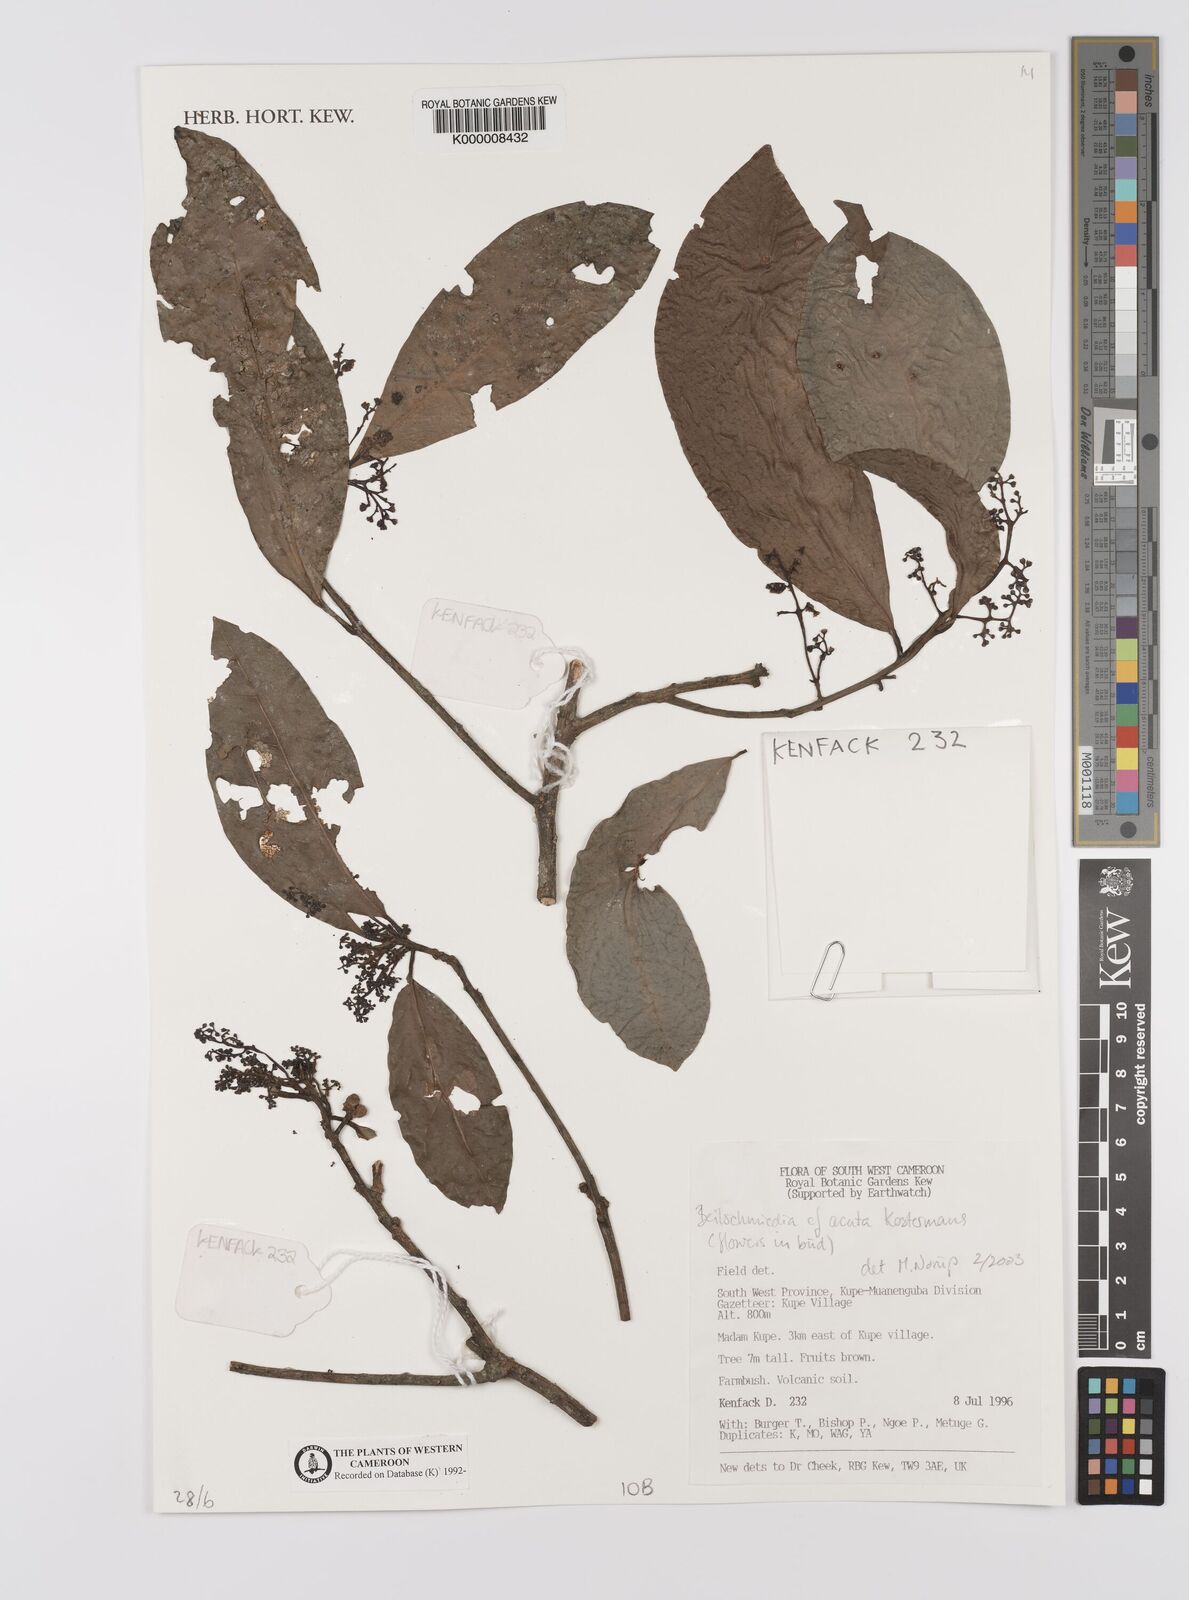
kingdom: Plantae
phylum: Tracheophyta
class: Magnoliopsida
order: Laurales
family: Lauraceae
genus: Beilschmiedia
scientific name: Beilschmiedia acuta
